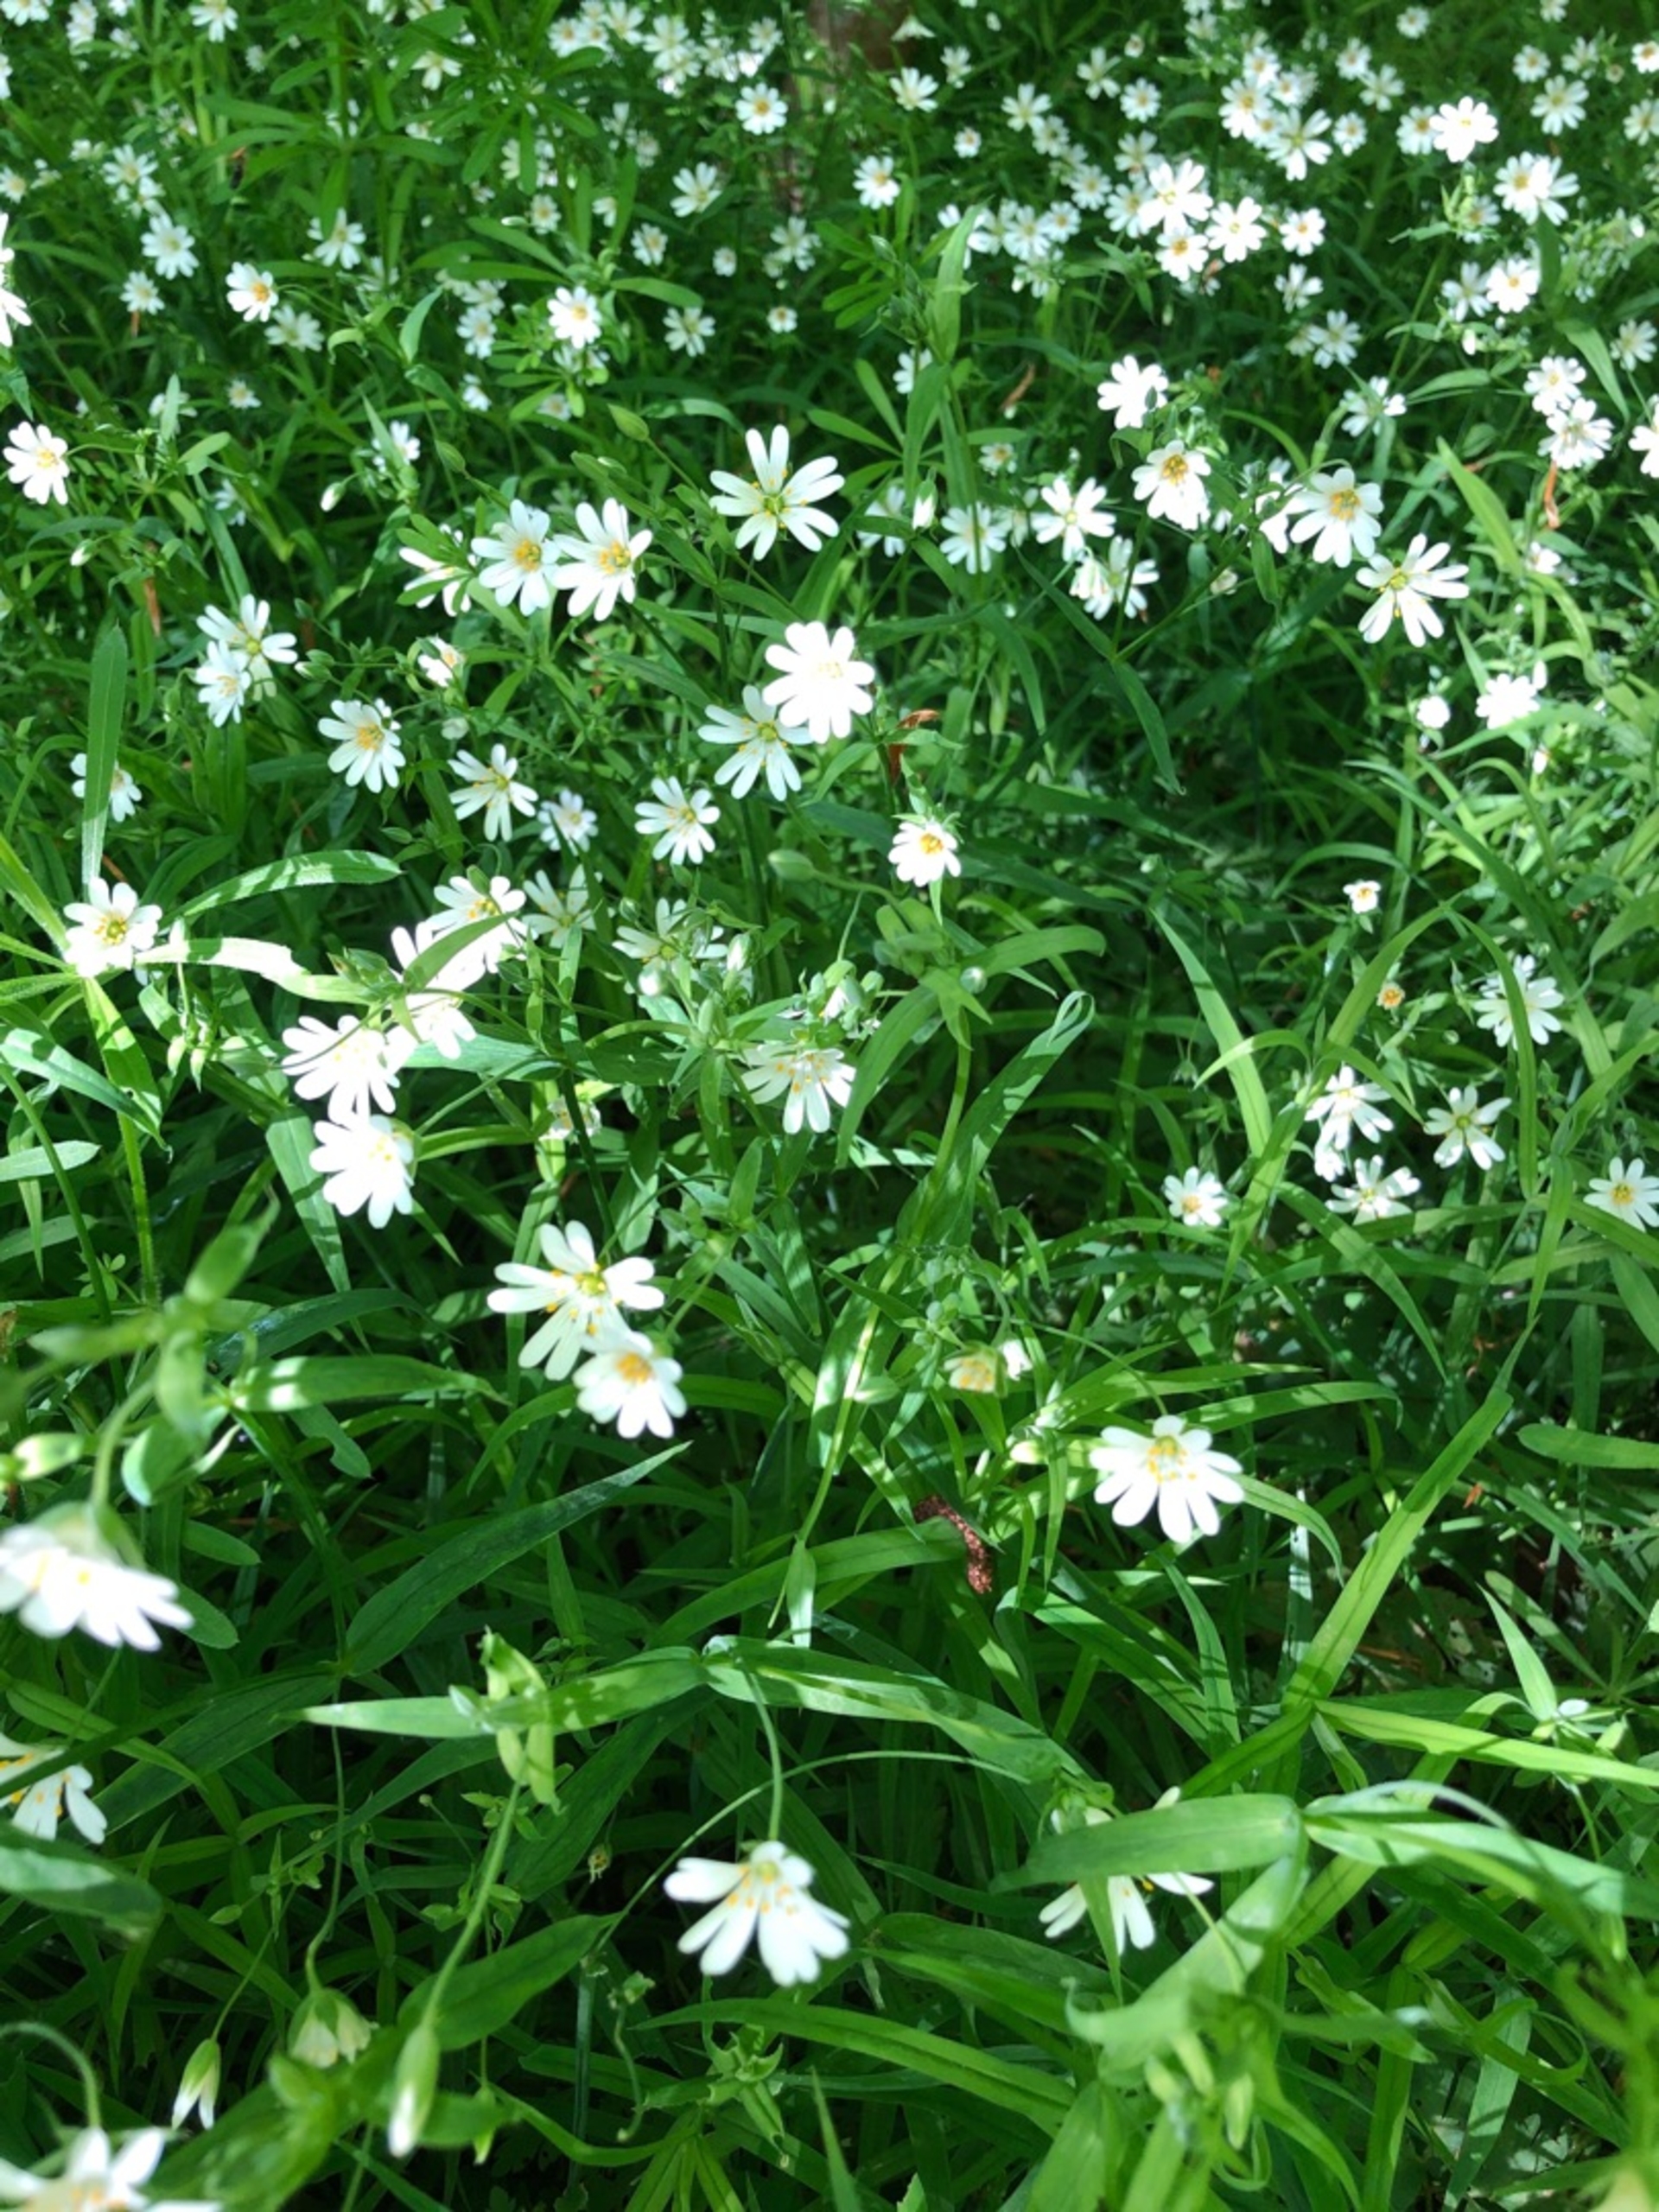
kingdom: Plantae
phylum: Tracheophyta
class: Magnoliopsida
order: Caryophyllales
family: Caryophyllaceae
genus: Rabelera
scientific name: Rabelera holostea
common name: Stor fladstjerne
